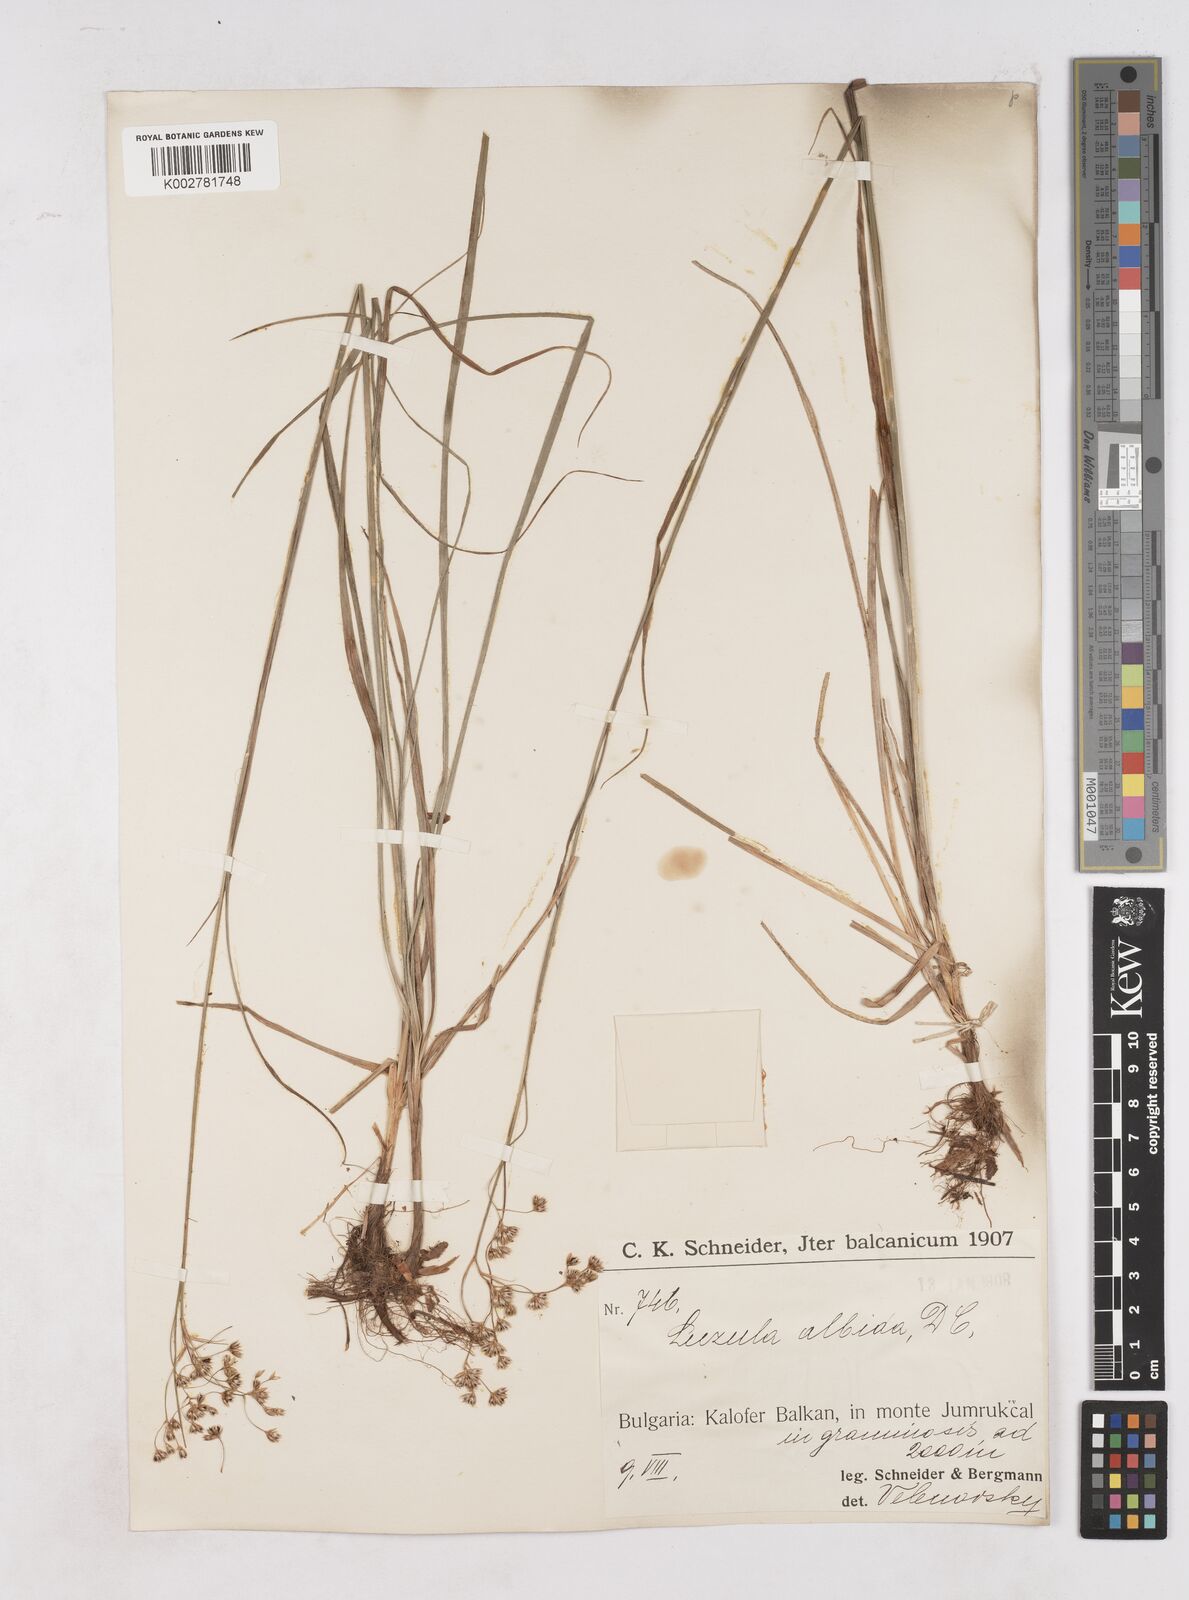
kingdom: Plantae
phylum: Tracheophyta
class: Liliopsida
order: Poales
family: Juncaceae
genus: Luzula
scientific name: Luzula luzuloides
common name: White wood-rush
